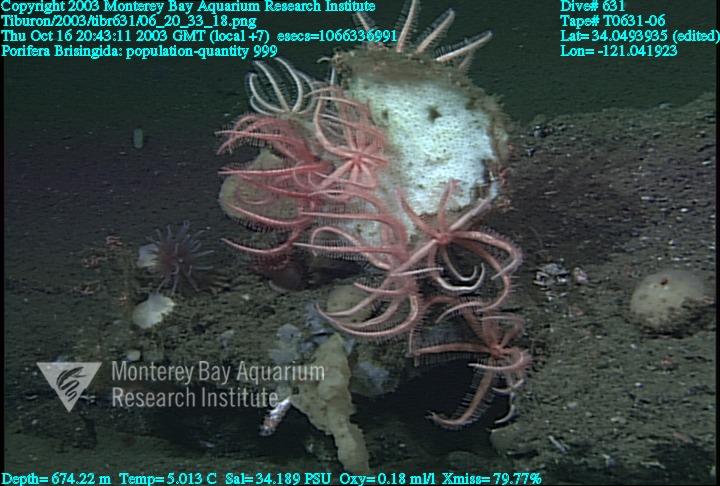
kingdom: Animalia
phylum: Porifera
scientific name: Porifera
